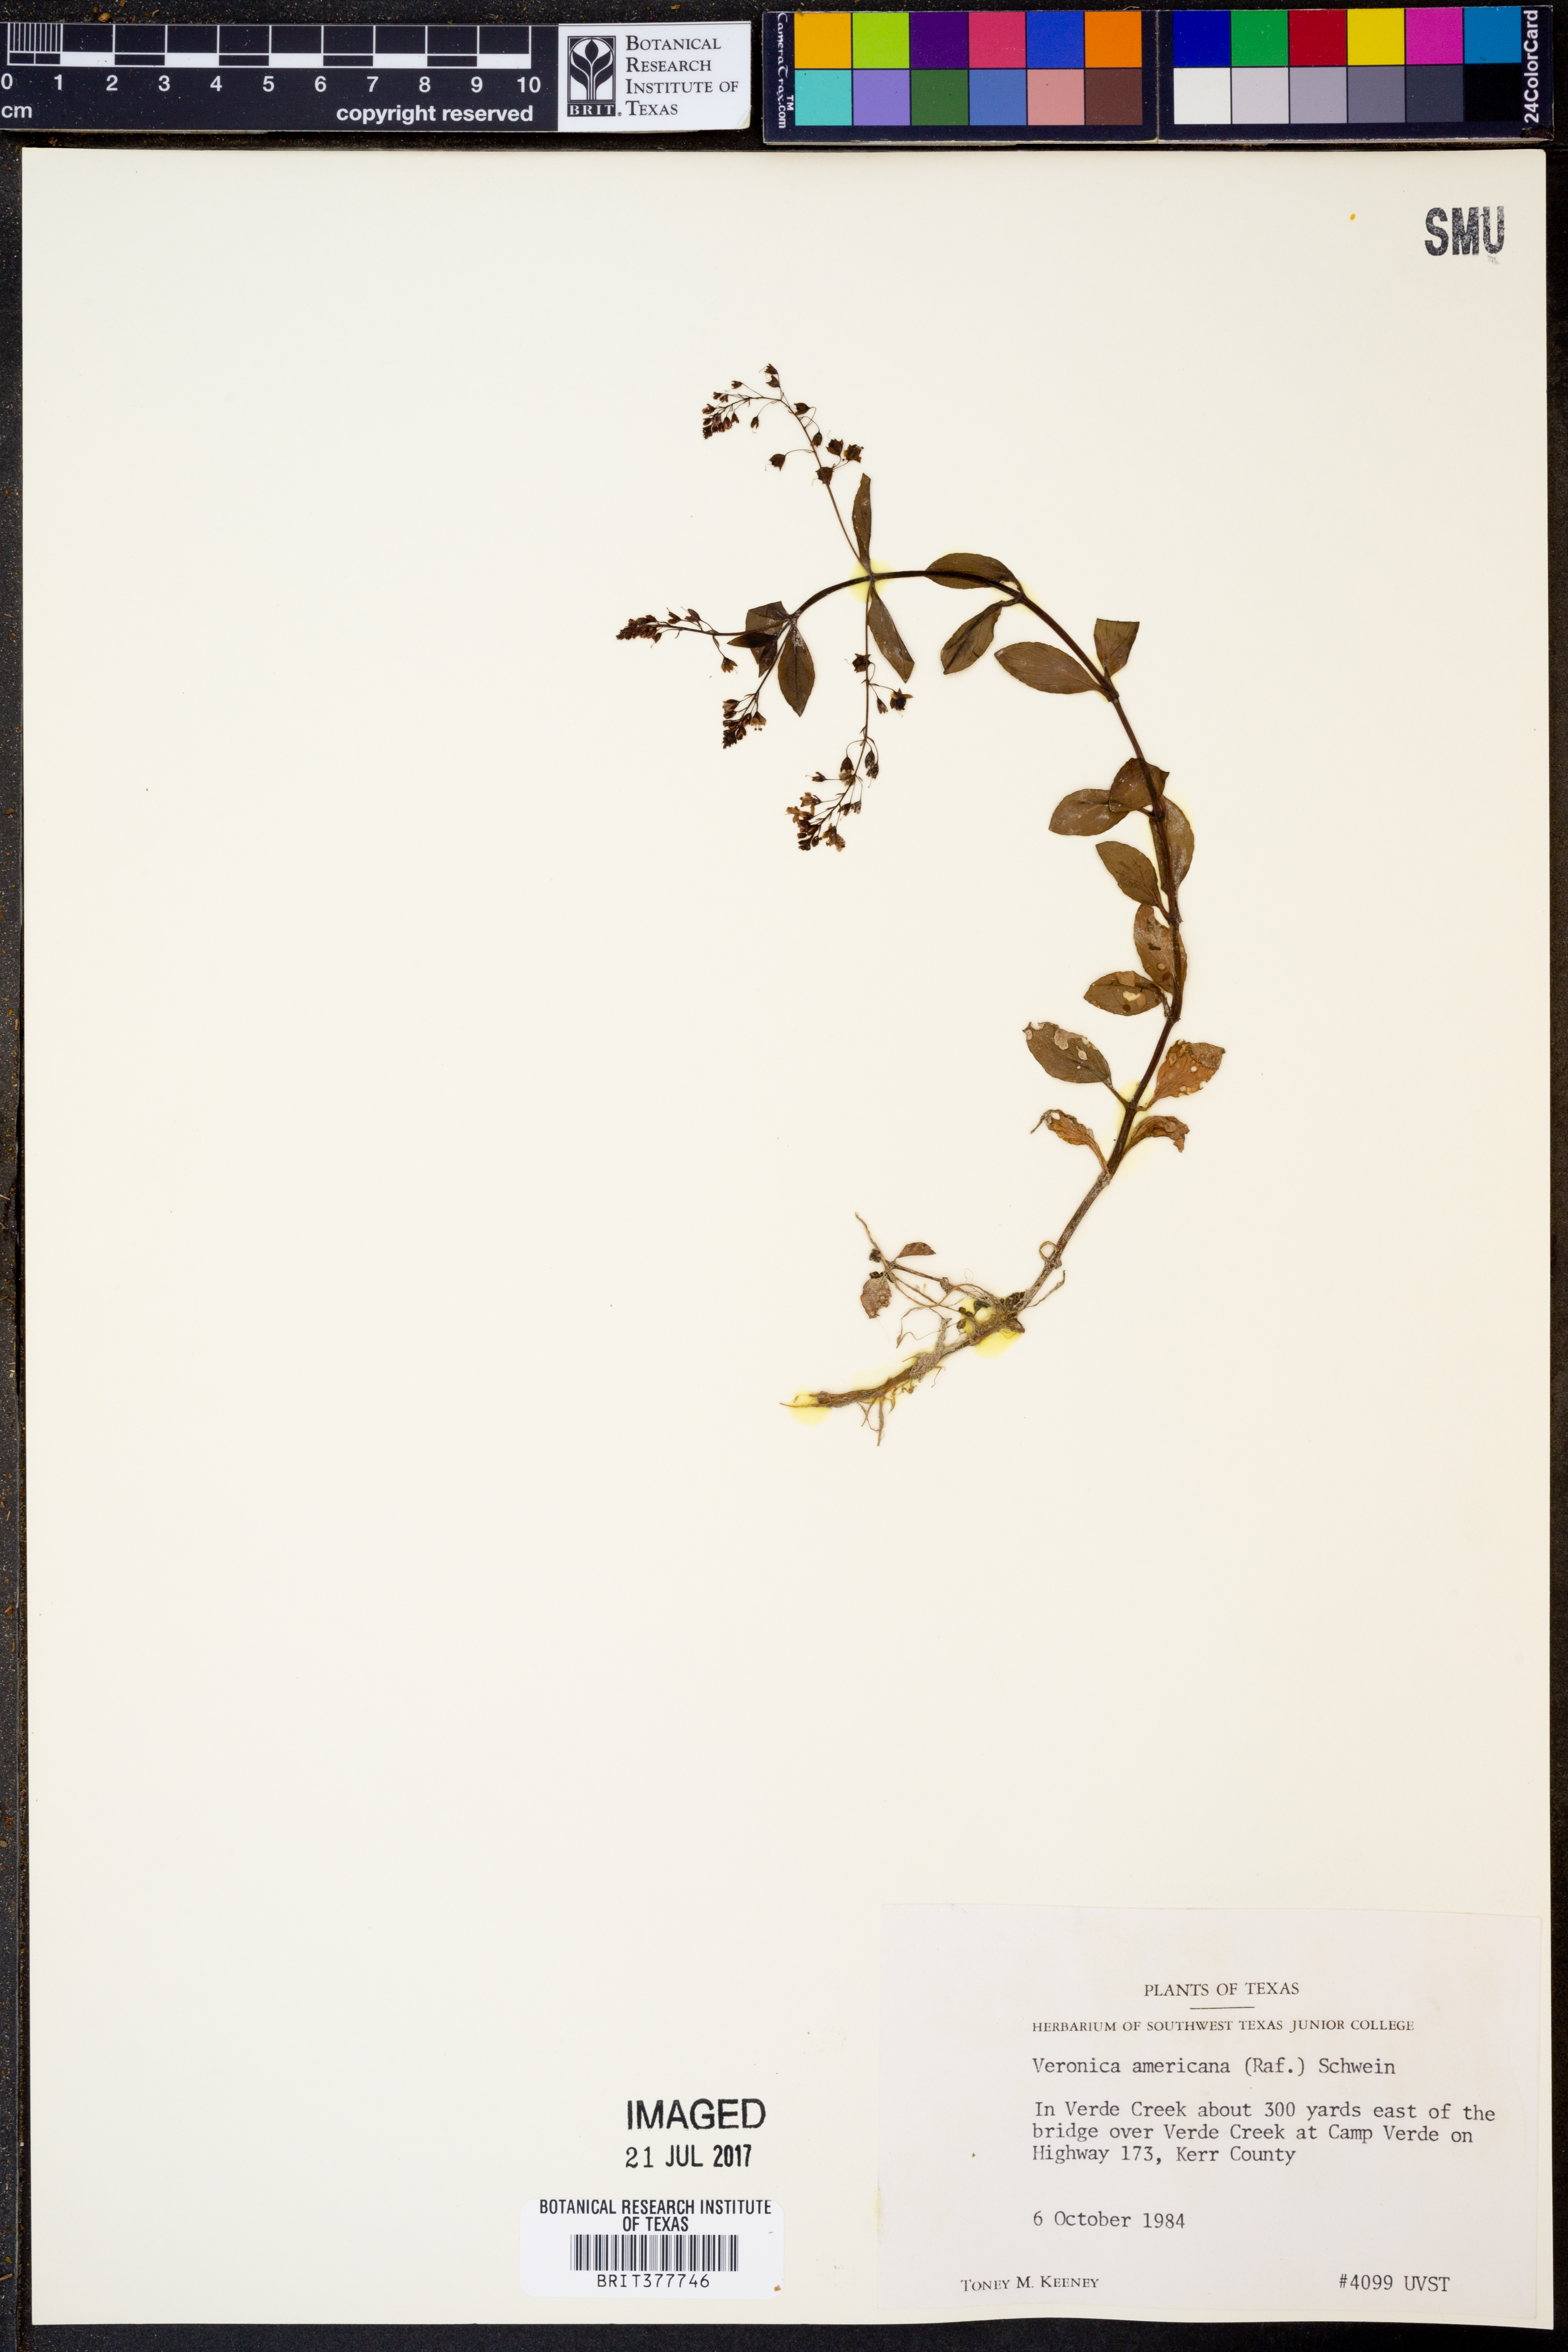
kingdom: Plantae
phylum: Tracheophyta
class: Magnoliopsida
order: Lamiales
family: Plantaginaceae
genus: Veronica
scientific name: Veronica americana
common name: American brooklime
